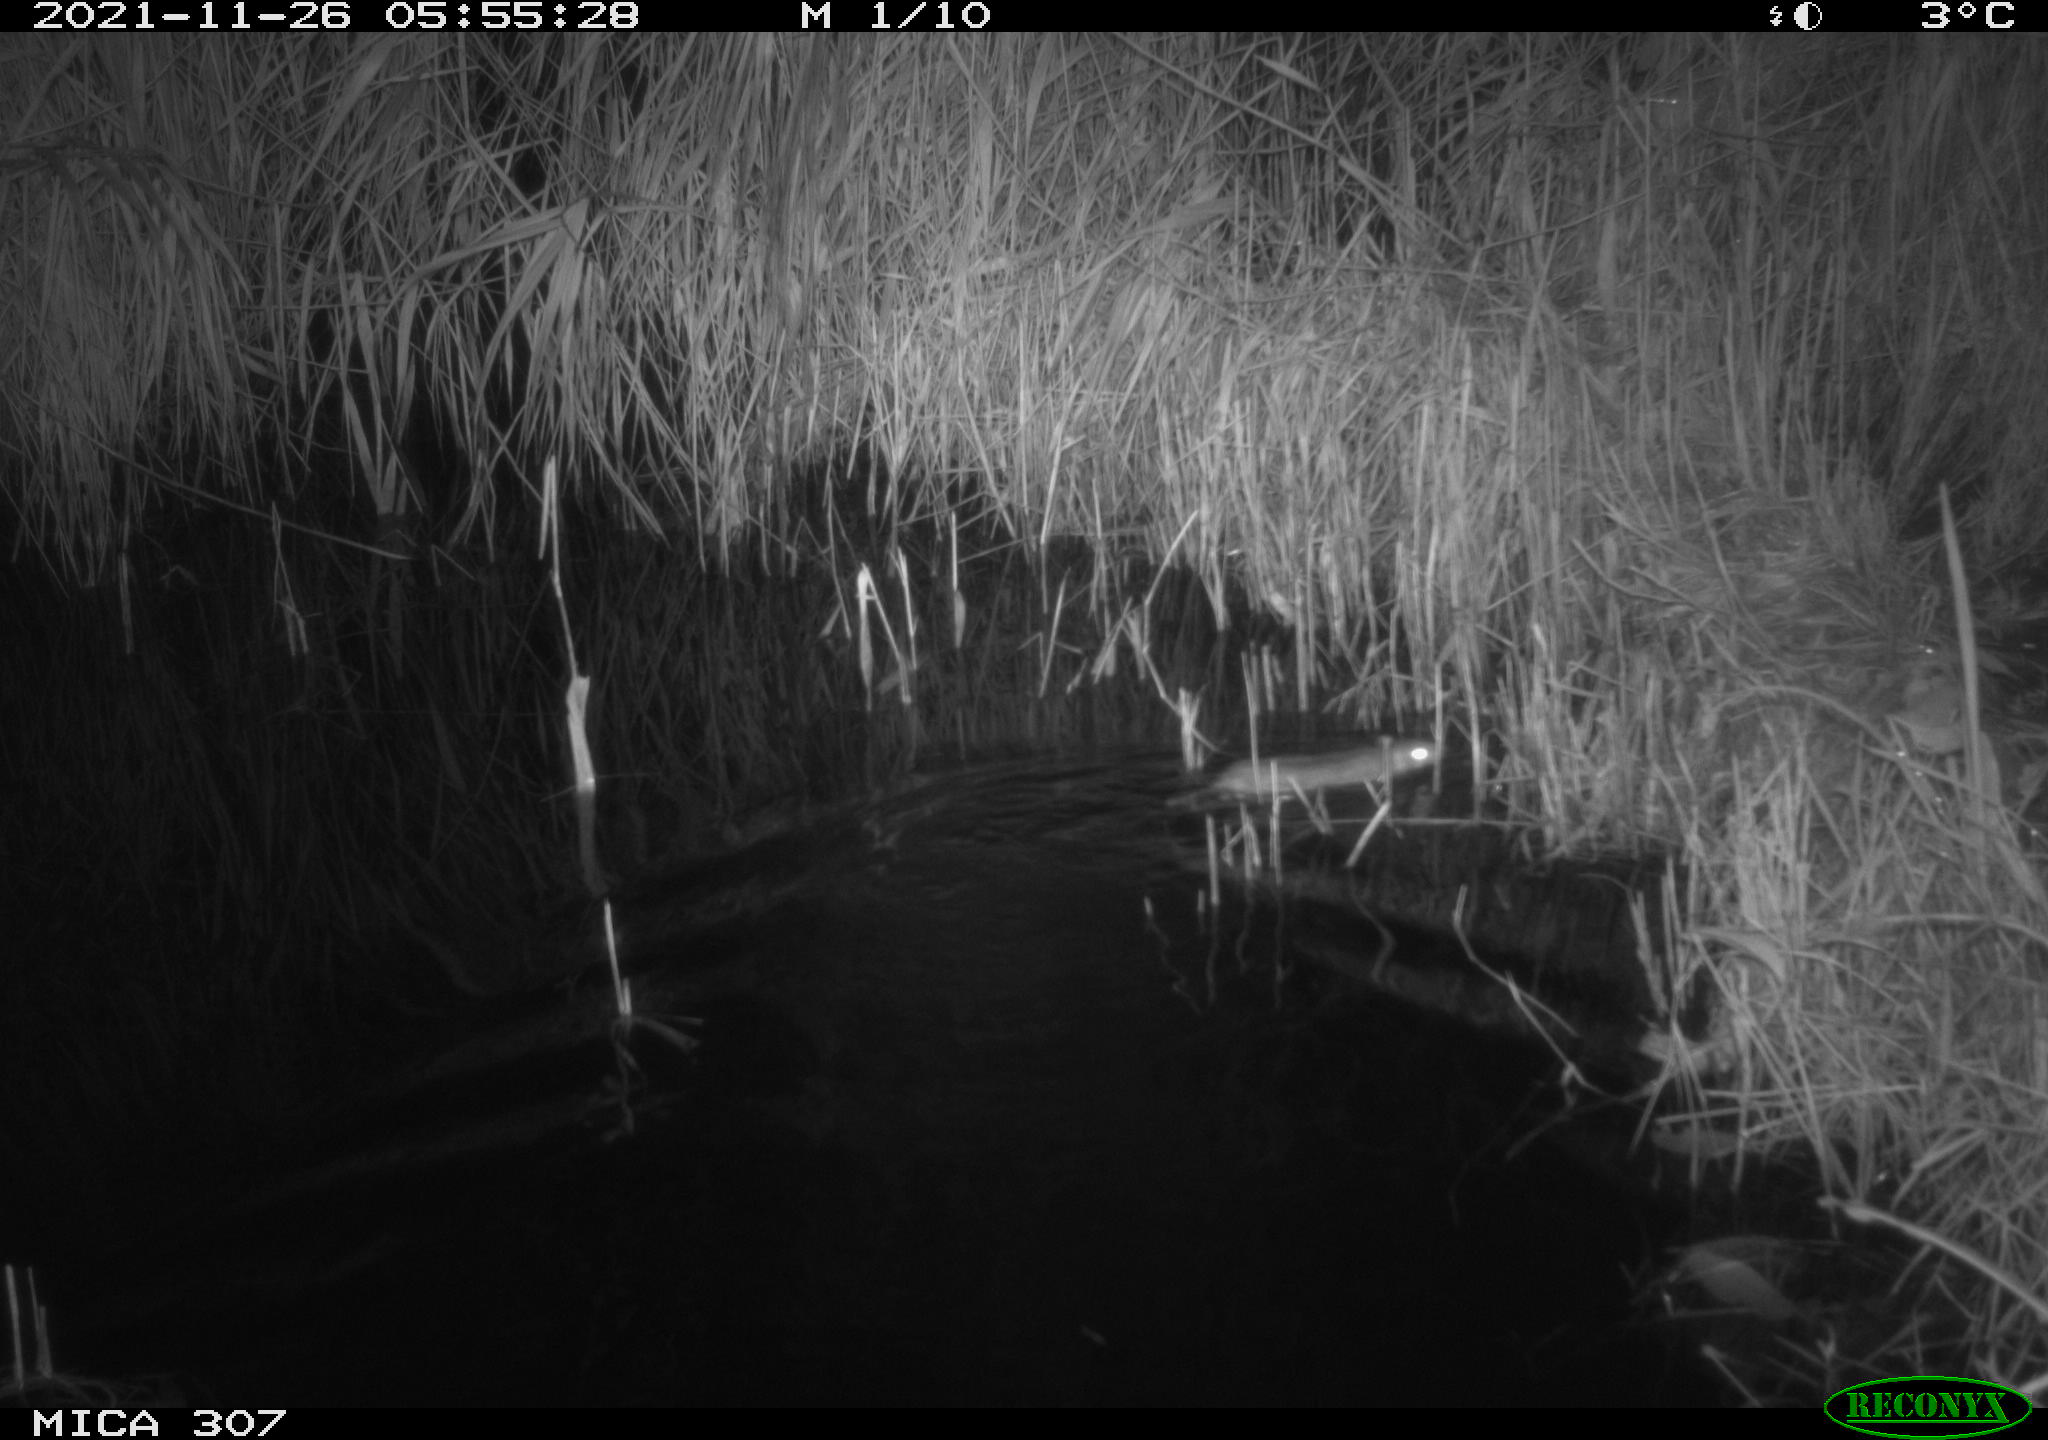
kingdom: Animalia
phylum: Chordata
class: Mammalia
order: Rodentia
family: Muridae
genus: Rattus
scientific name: Rattus norvegicus
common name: Brown rat
